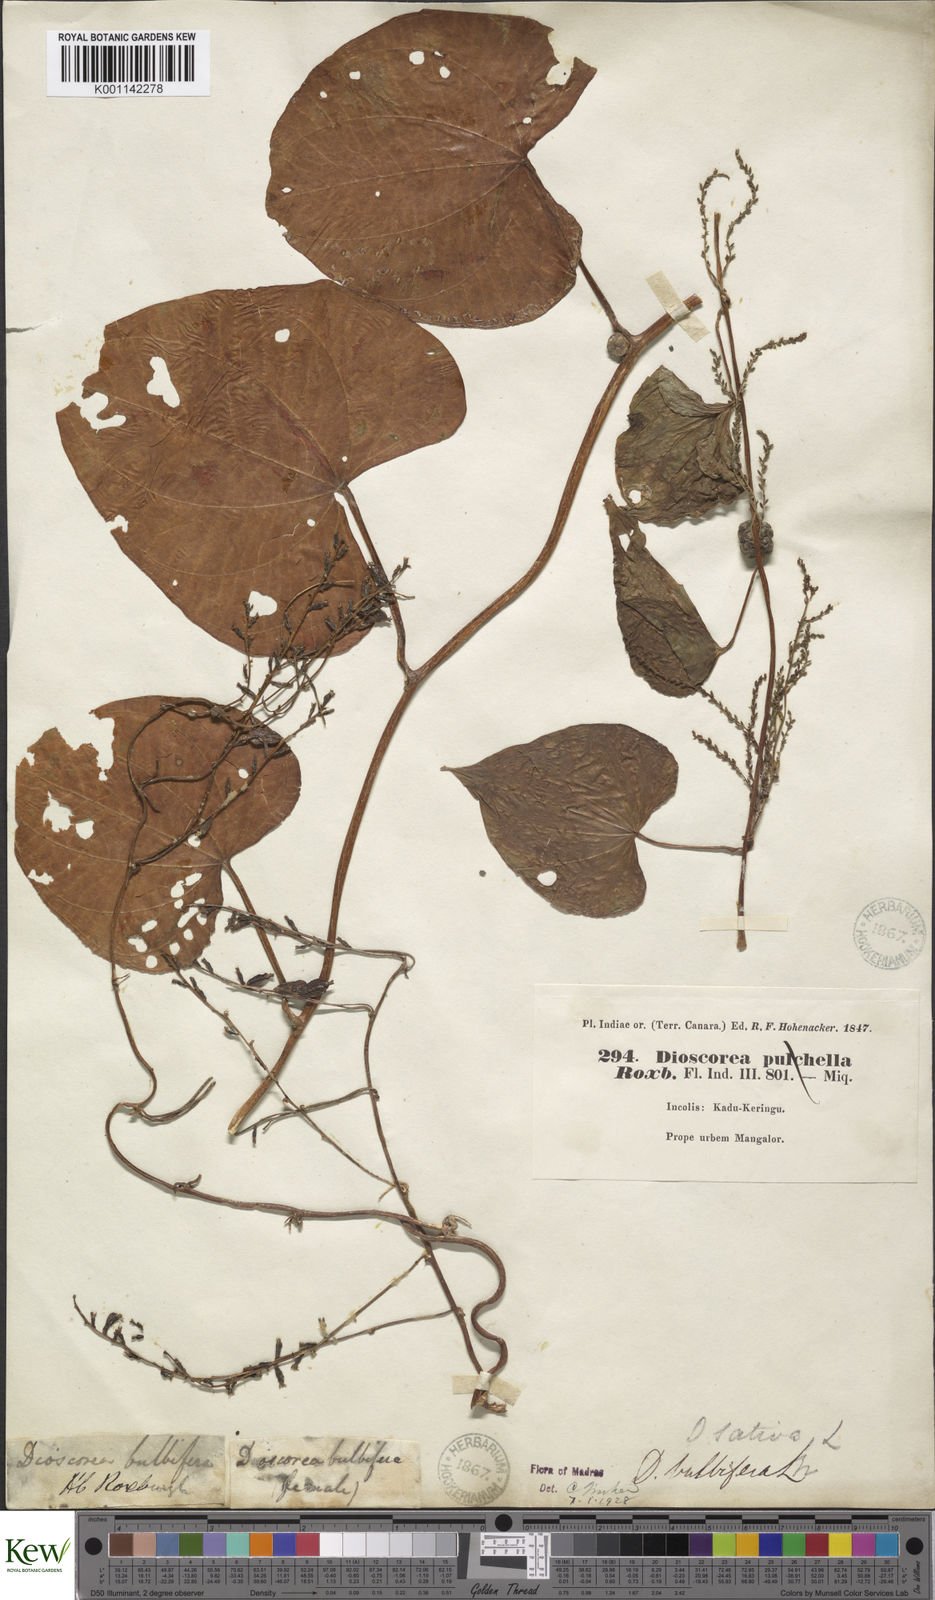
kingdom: Plantae
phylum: Tracheophyta
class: Liliopsida
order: Dioscoreales
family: Dioscoreaceae
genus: Dioscorea
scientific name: Dioscorea bulbifera
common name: Air yam
